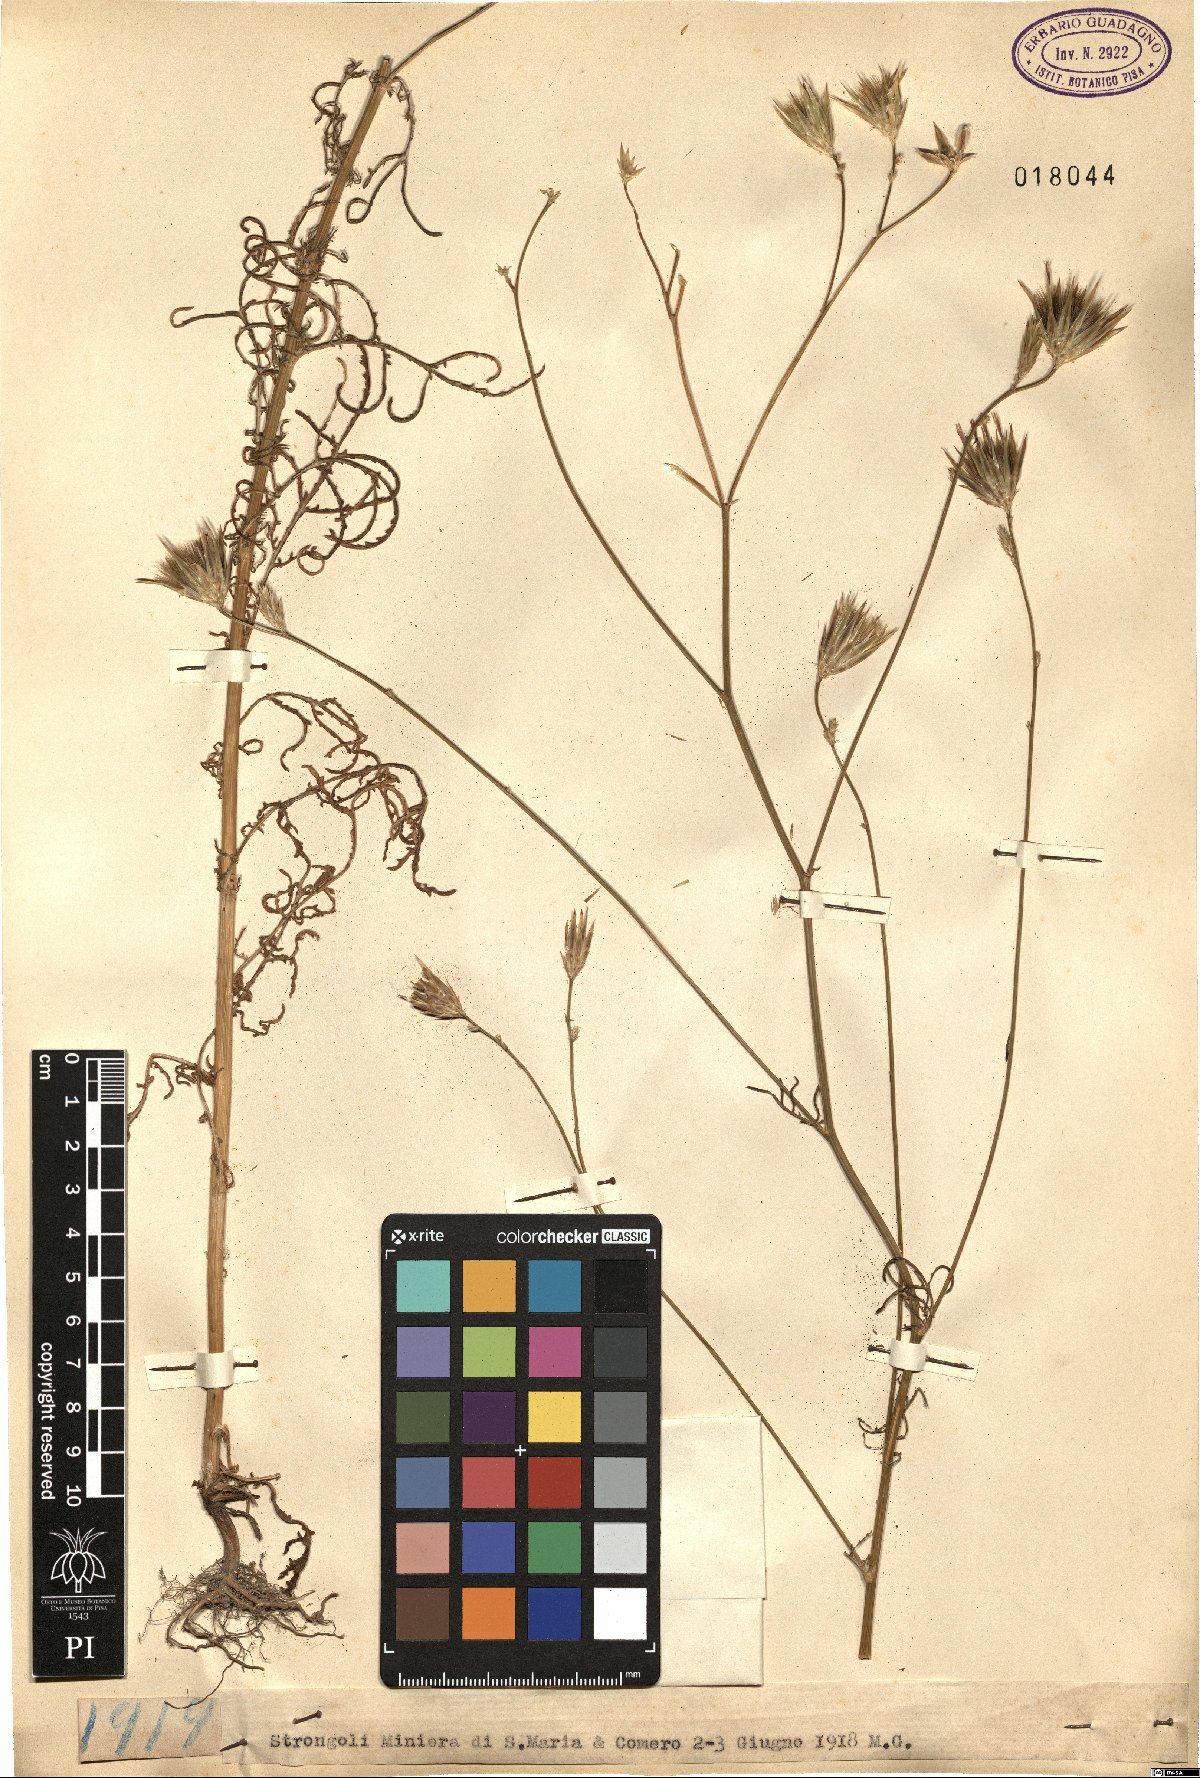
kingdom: Plantae
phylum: Tracheophyta
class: Magnoliopsida
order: Asterales
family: Asteraceae
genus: Crupina
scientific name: Crupina
